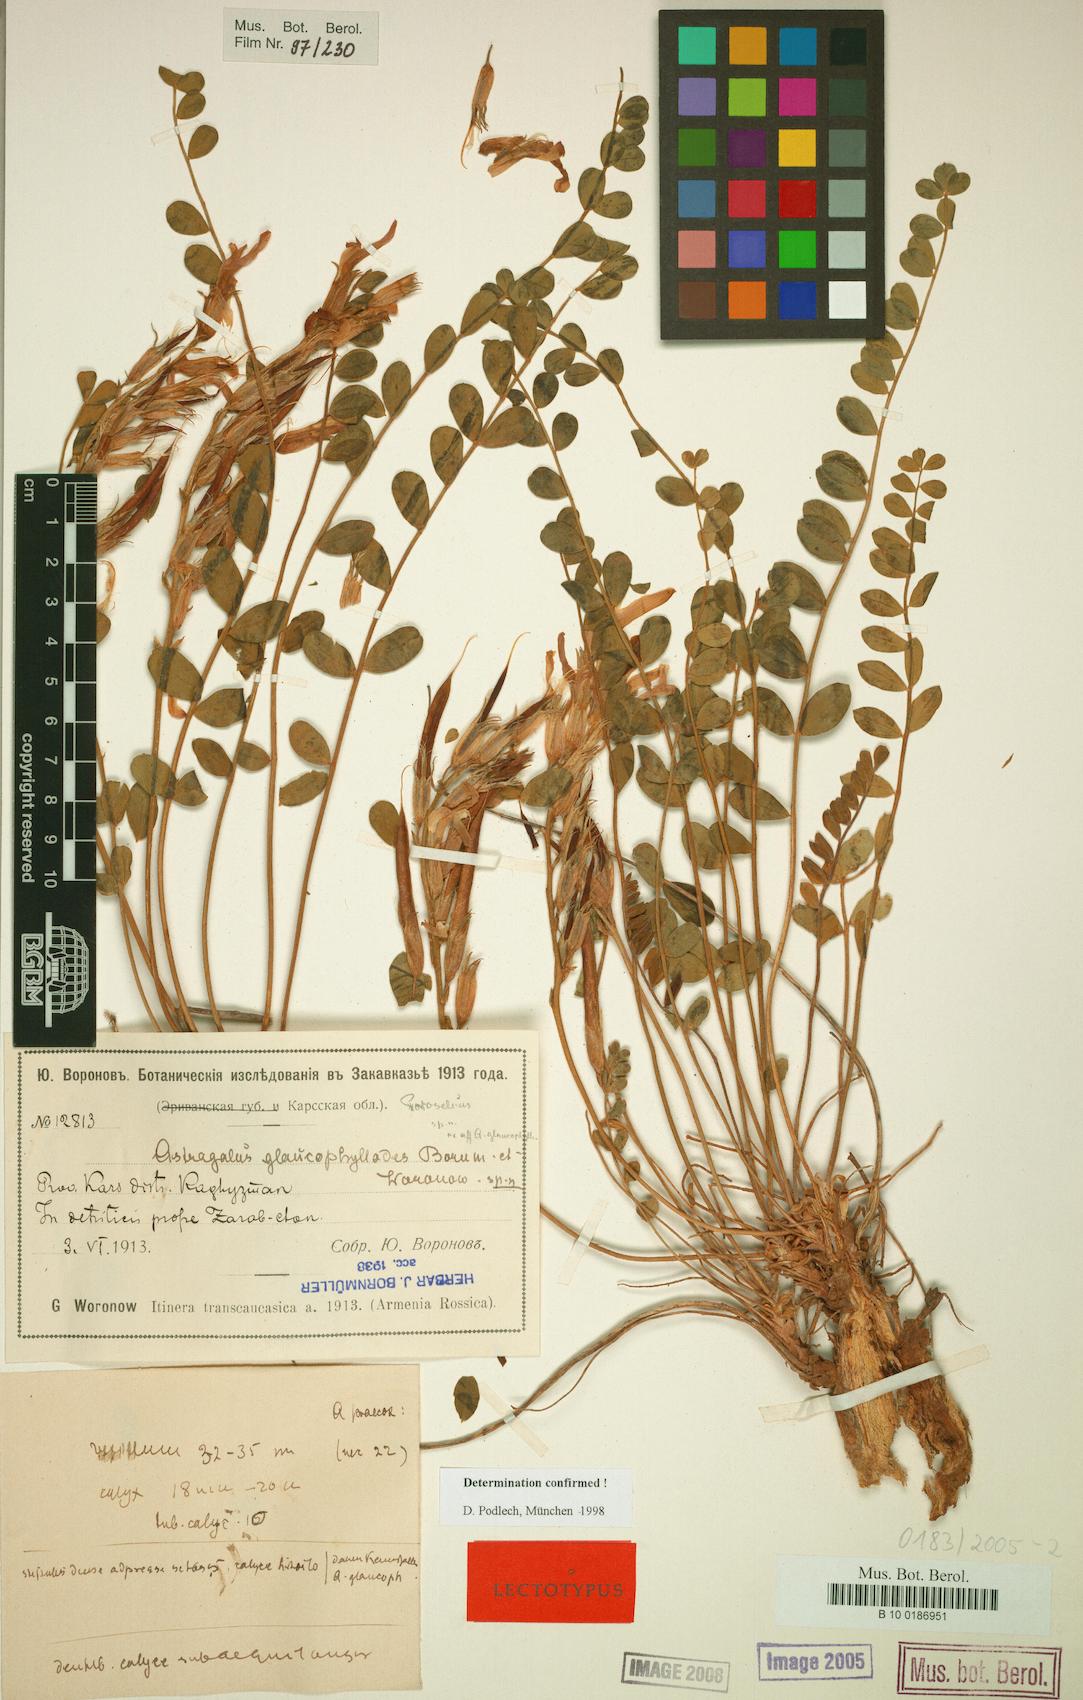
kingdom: Plantae
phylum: Tracheophyta
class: Magnoliopsida
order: Fabales
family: Fabaceae
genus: Astragalus
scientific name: Astragalus glaucophyllodes
